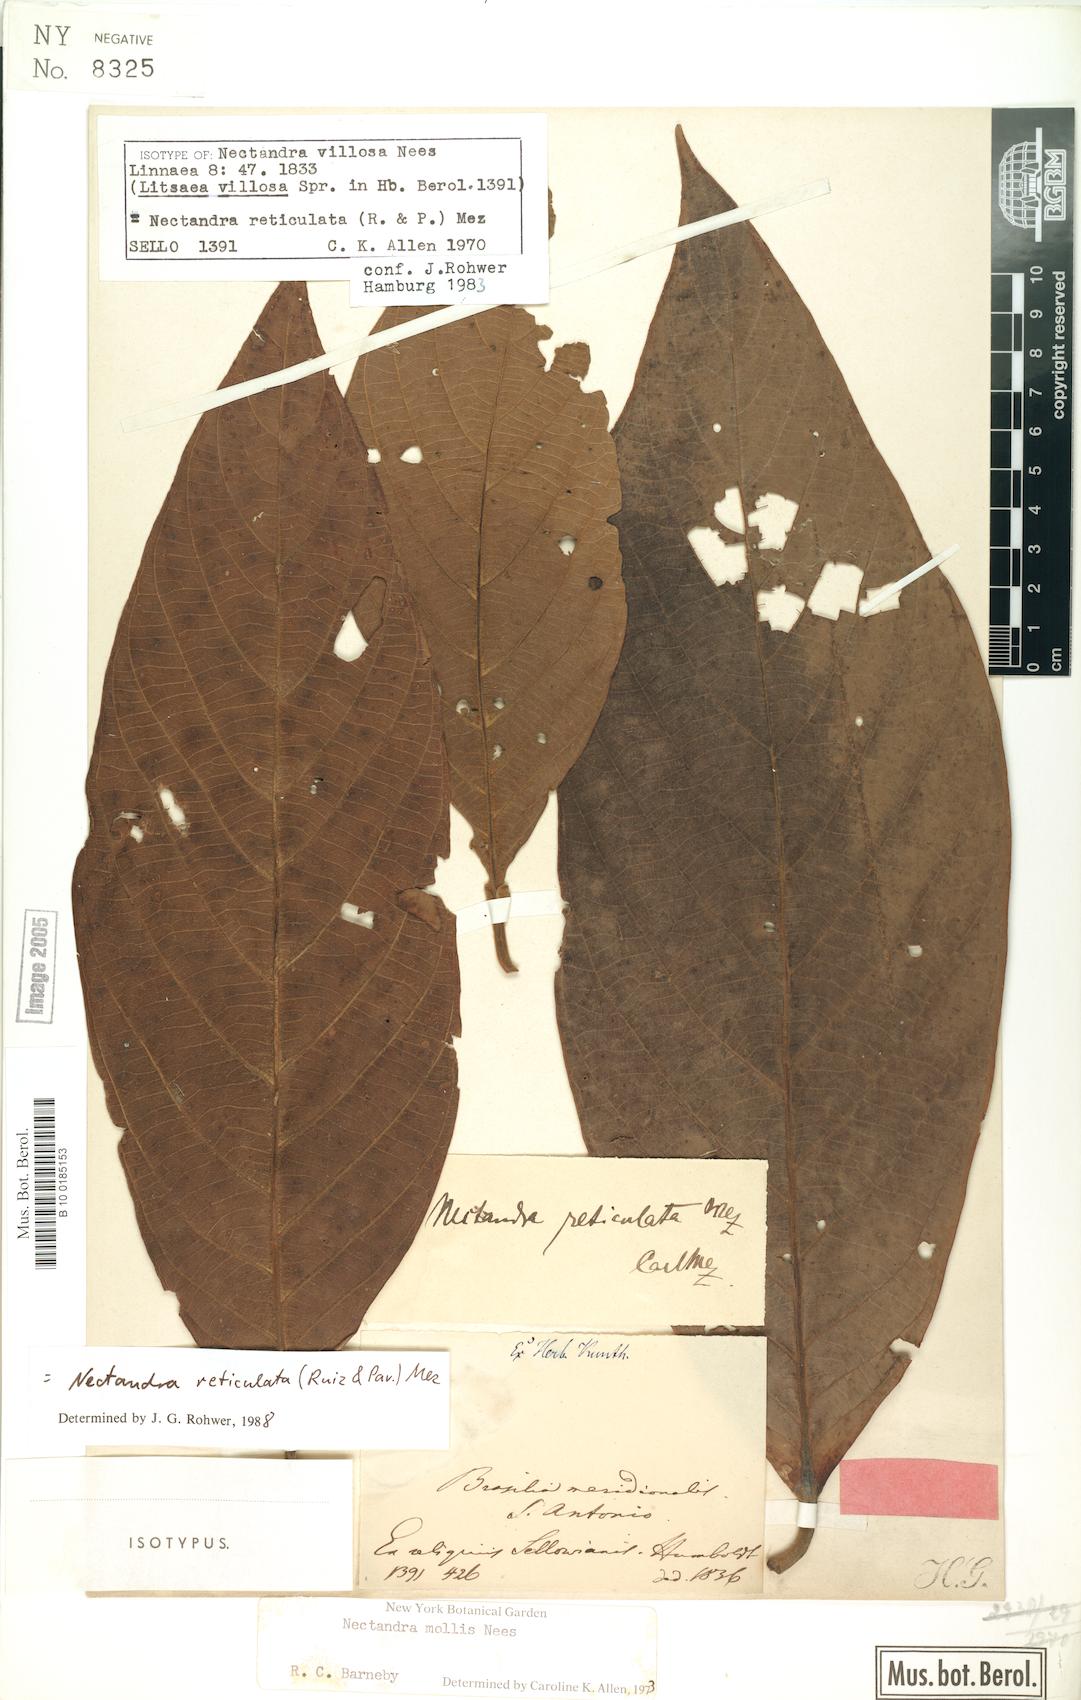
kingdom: Plantae
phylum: Tracheophyta
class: Magnoliopsida
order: Laurales
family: Lauraceae
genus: Nectandra
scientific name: Nectandra villosa
